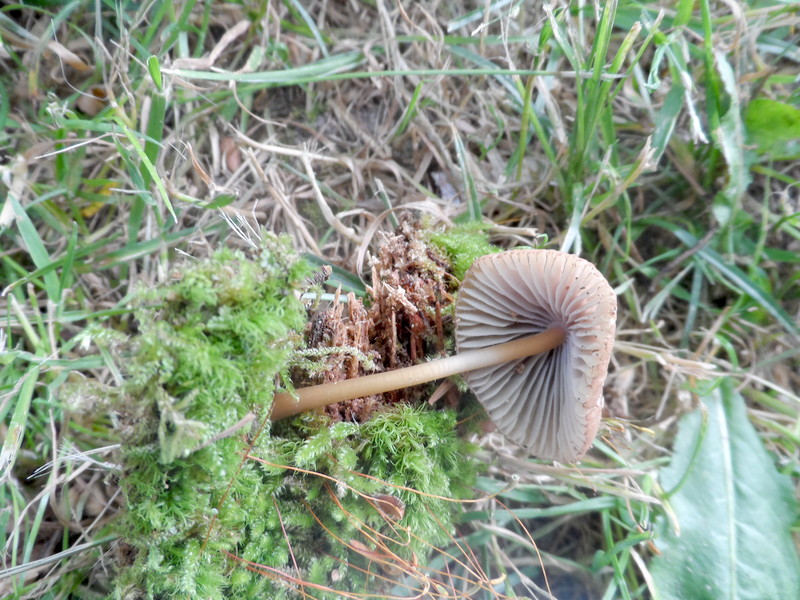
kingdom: Fungi
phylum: Basidiomycota
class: Agaricomycetes
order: Agaricales
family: Mycenaceae
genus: Mycena
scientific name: Mycena viridimarginata
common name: Olive edge bonnet
